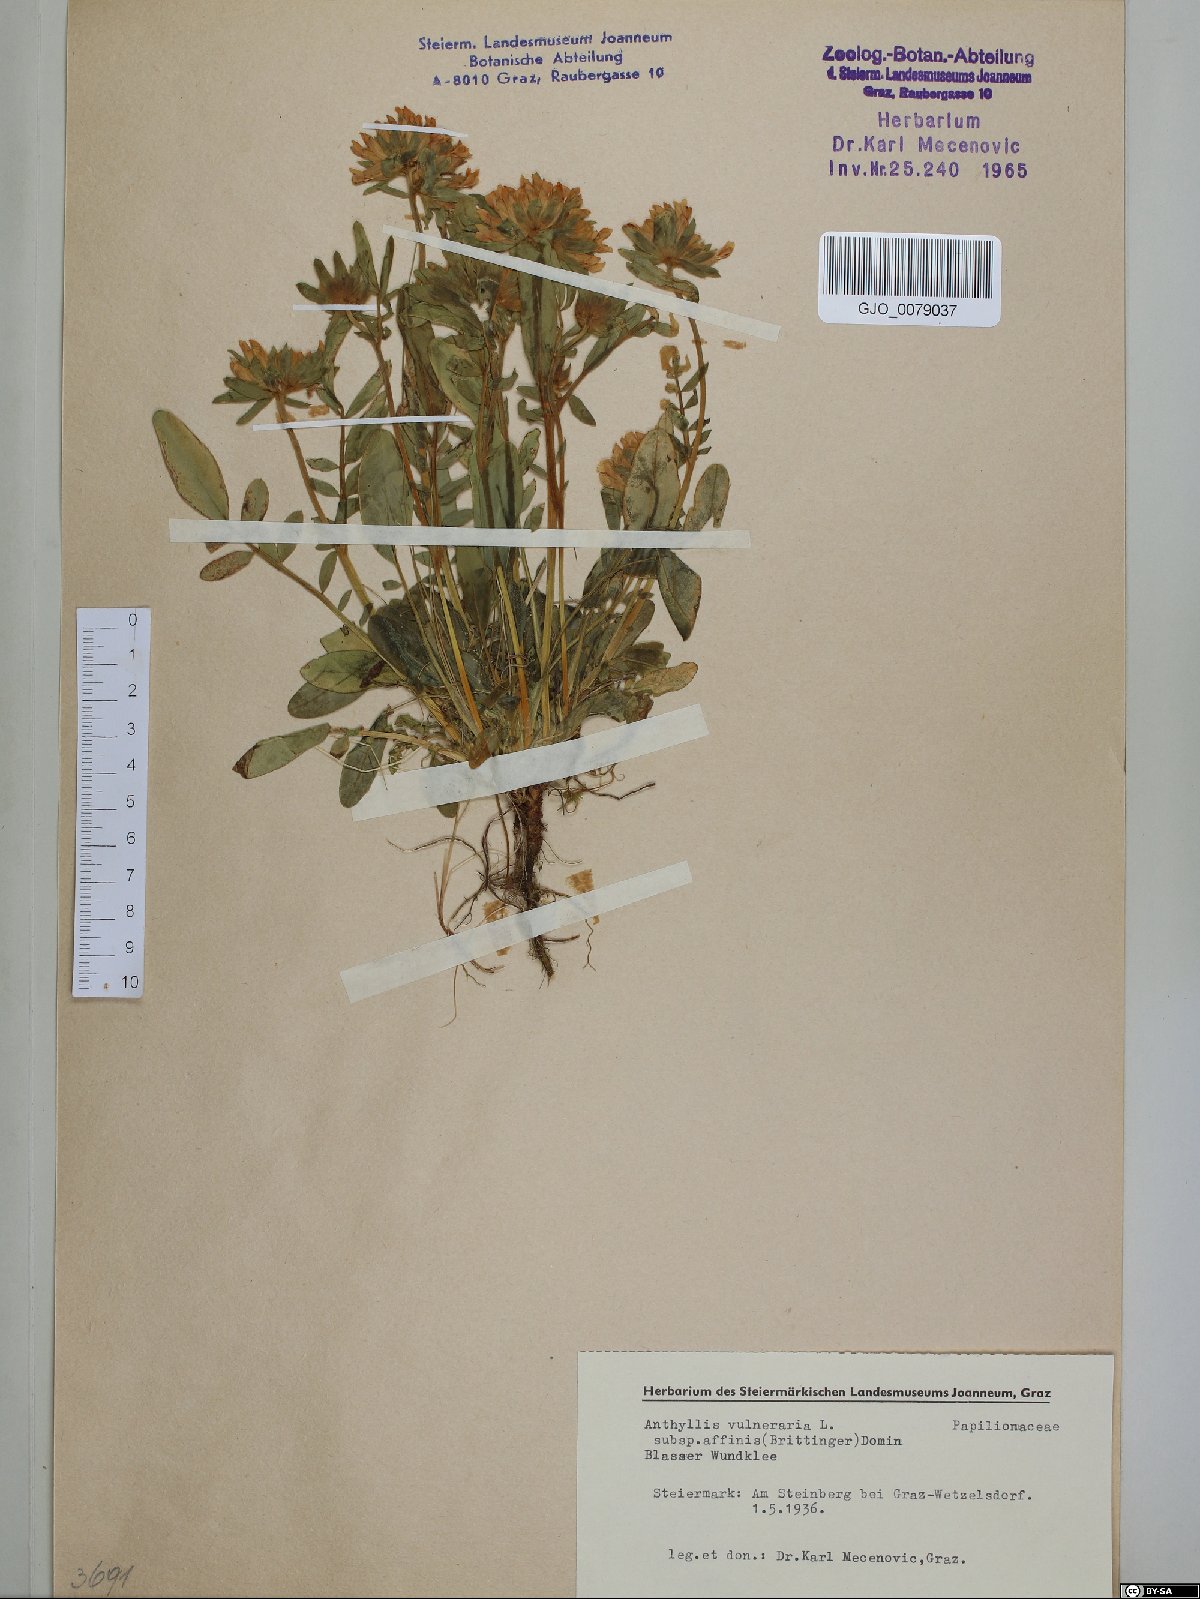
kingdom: Plantae
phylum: Tracheophyta
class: Magnoliopsida
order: Fabales
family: Fabaceae
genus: Anthyllis
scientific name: Anthyllis vulneraria
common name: Kidney vetch
